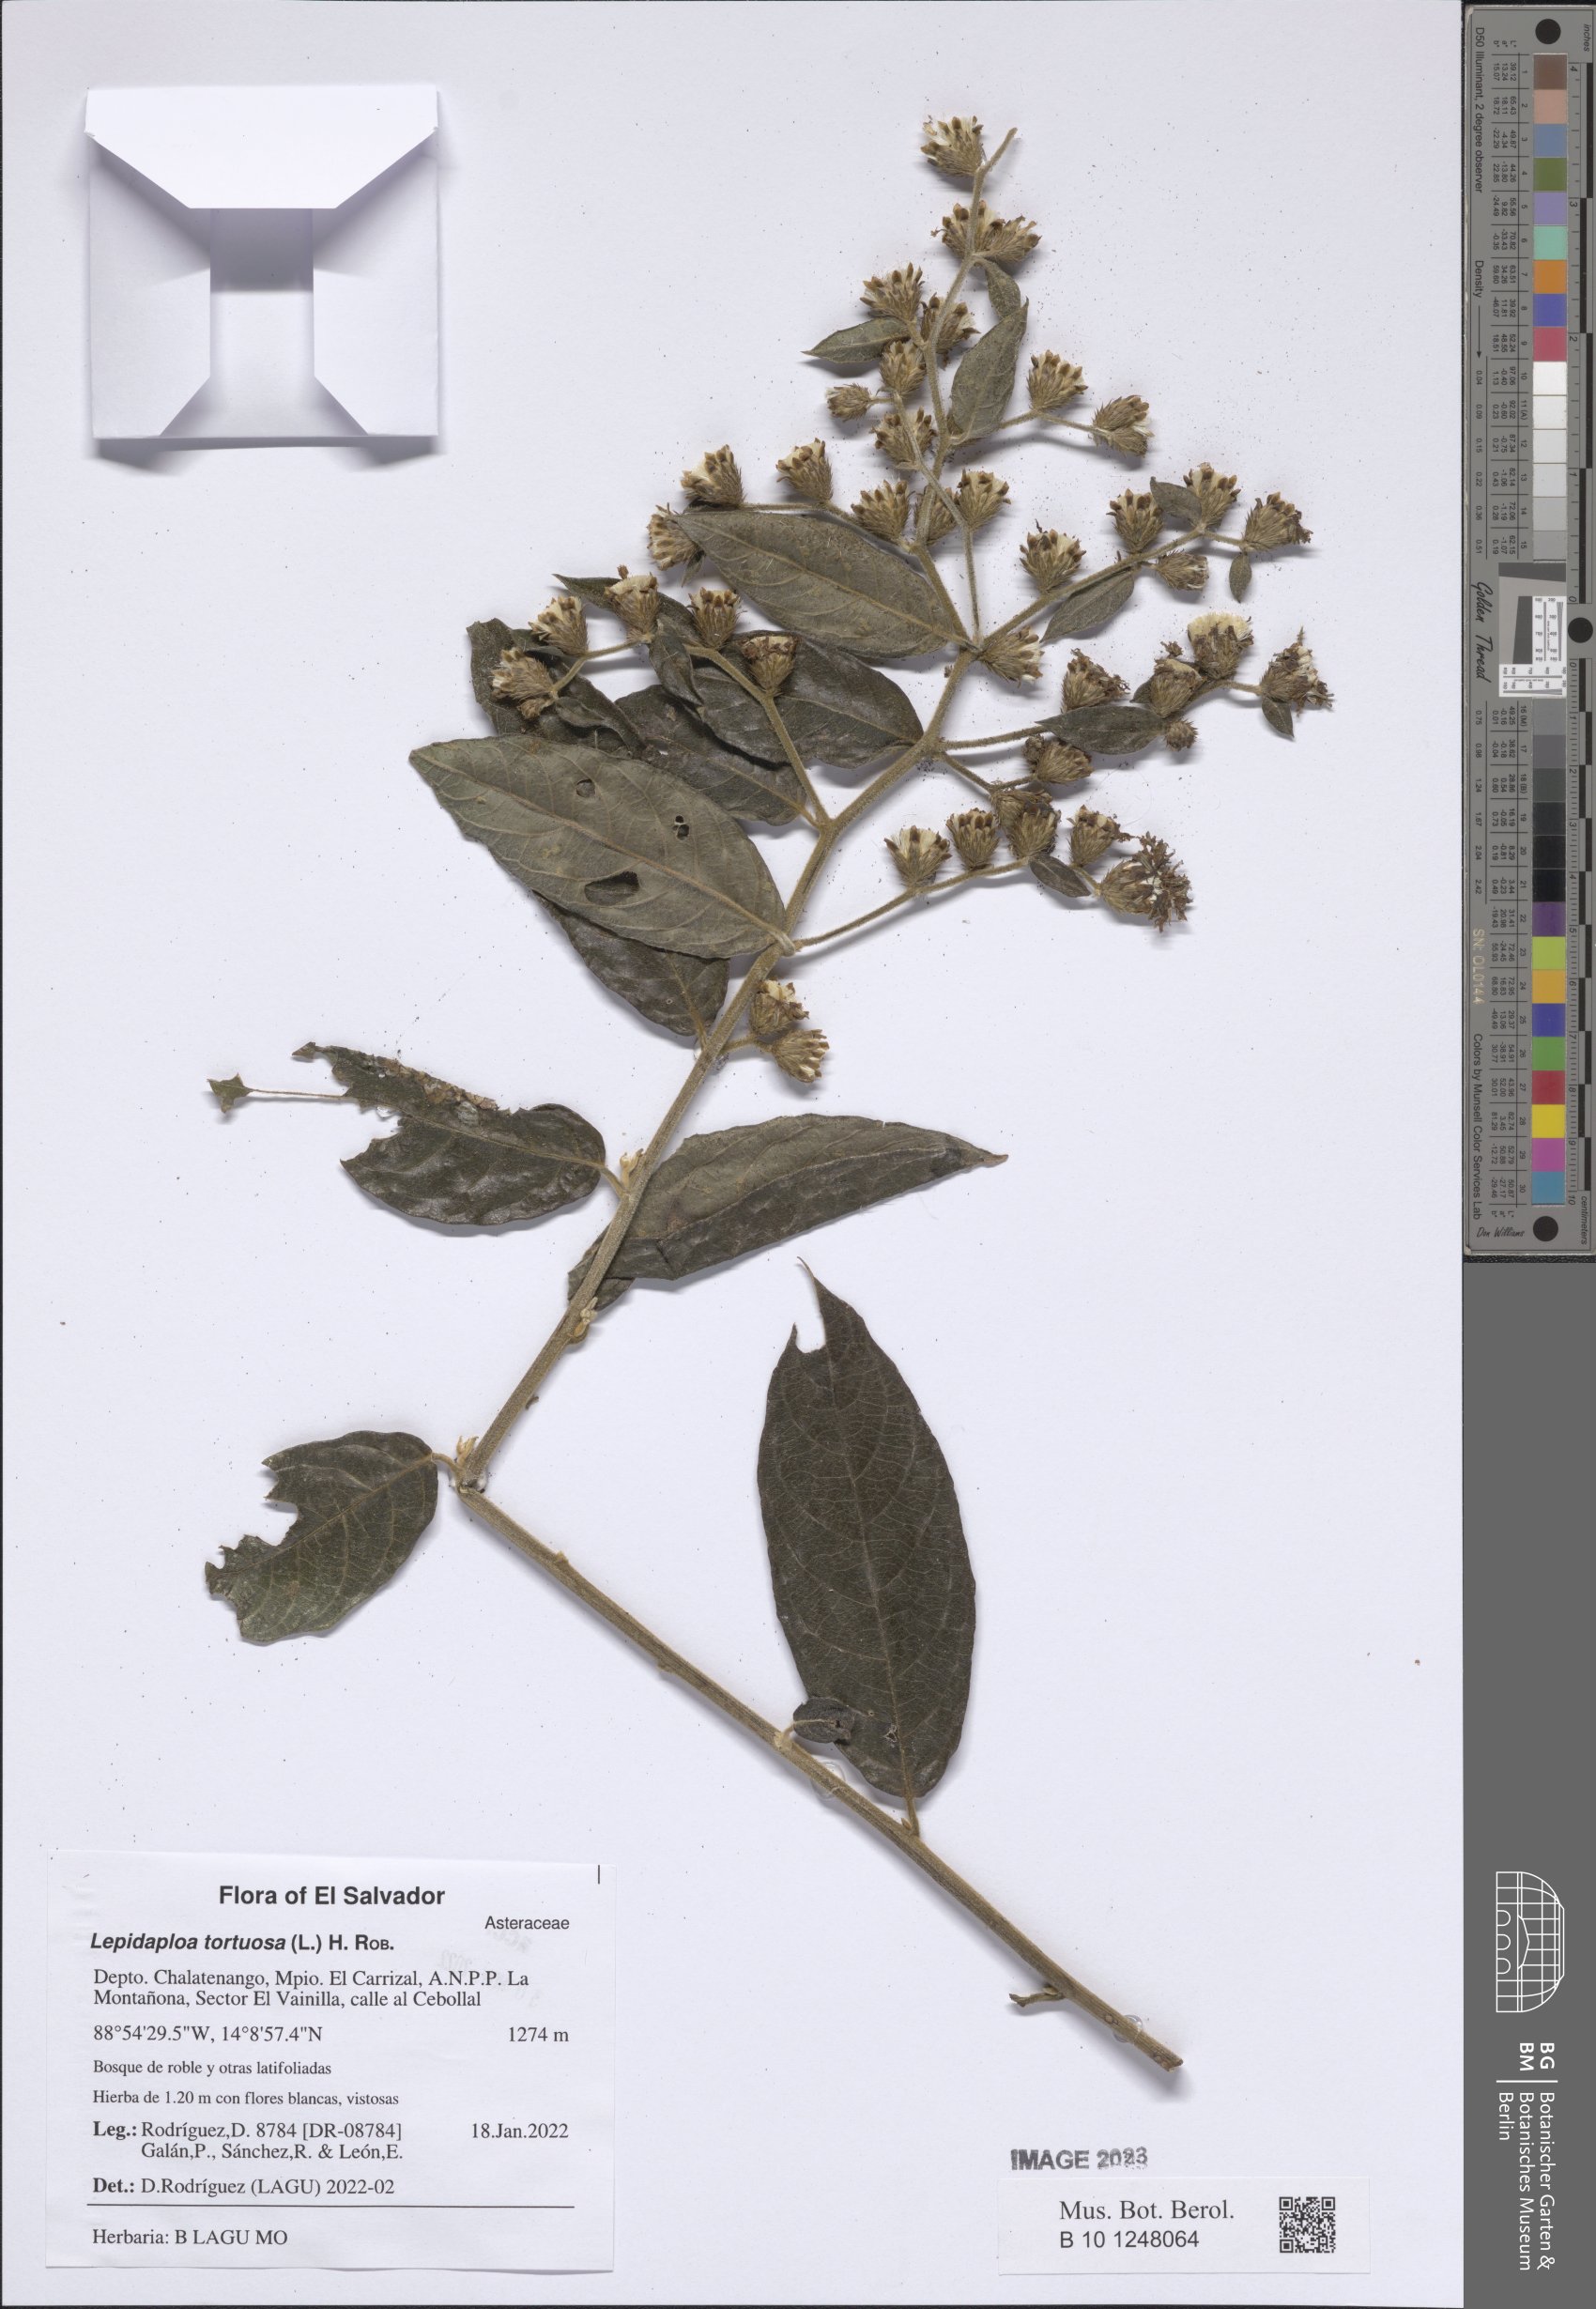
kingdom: Plantae
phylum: Tracheophyta
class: Magnoliopsida
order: Asterales
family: Asteraceae
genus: Lepidaploa
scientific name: Lepidaploa tortuosa
